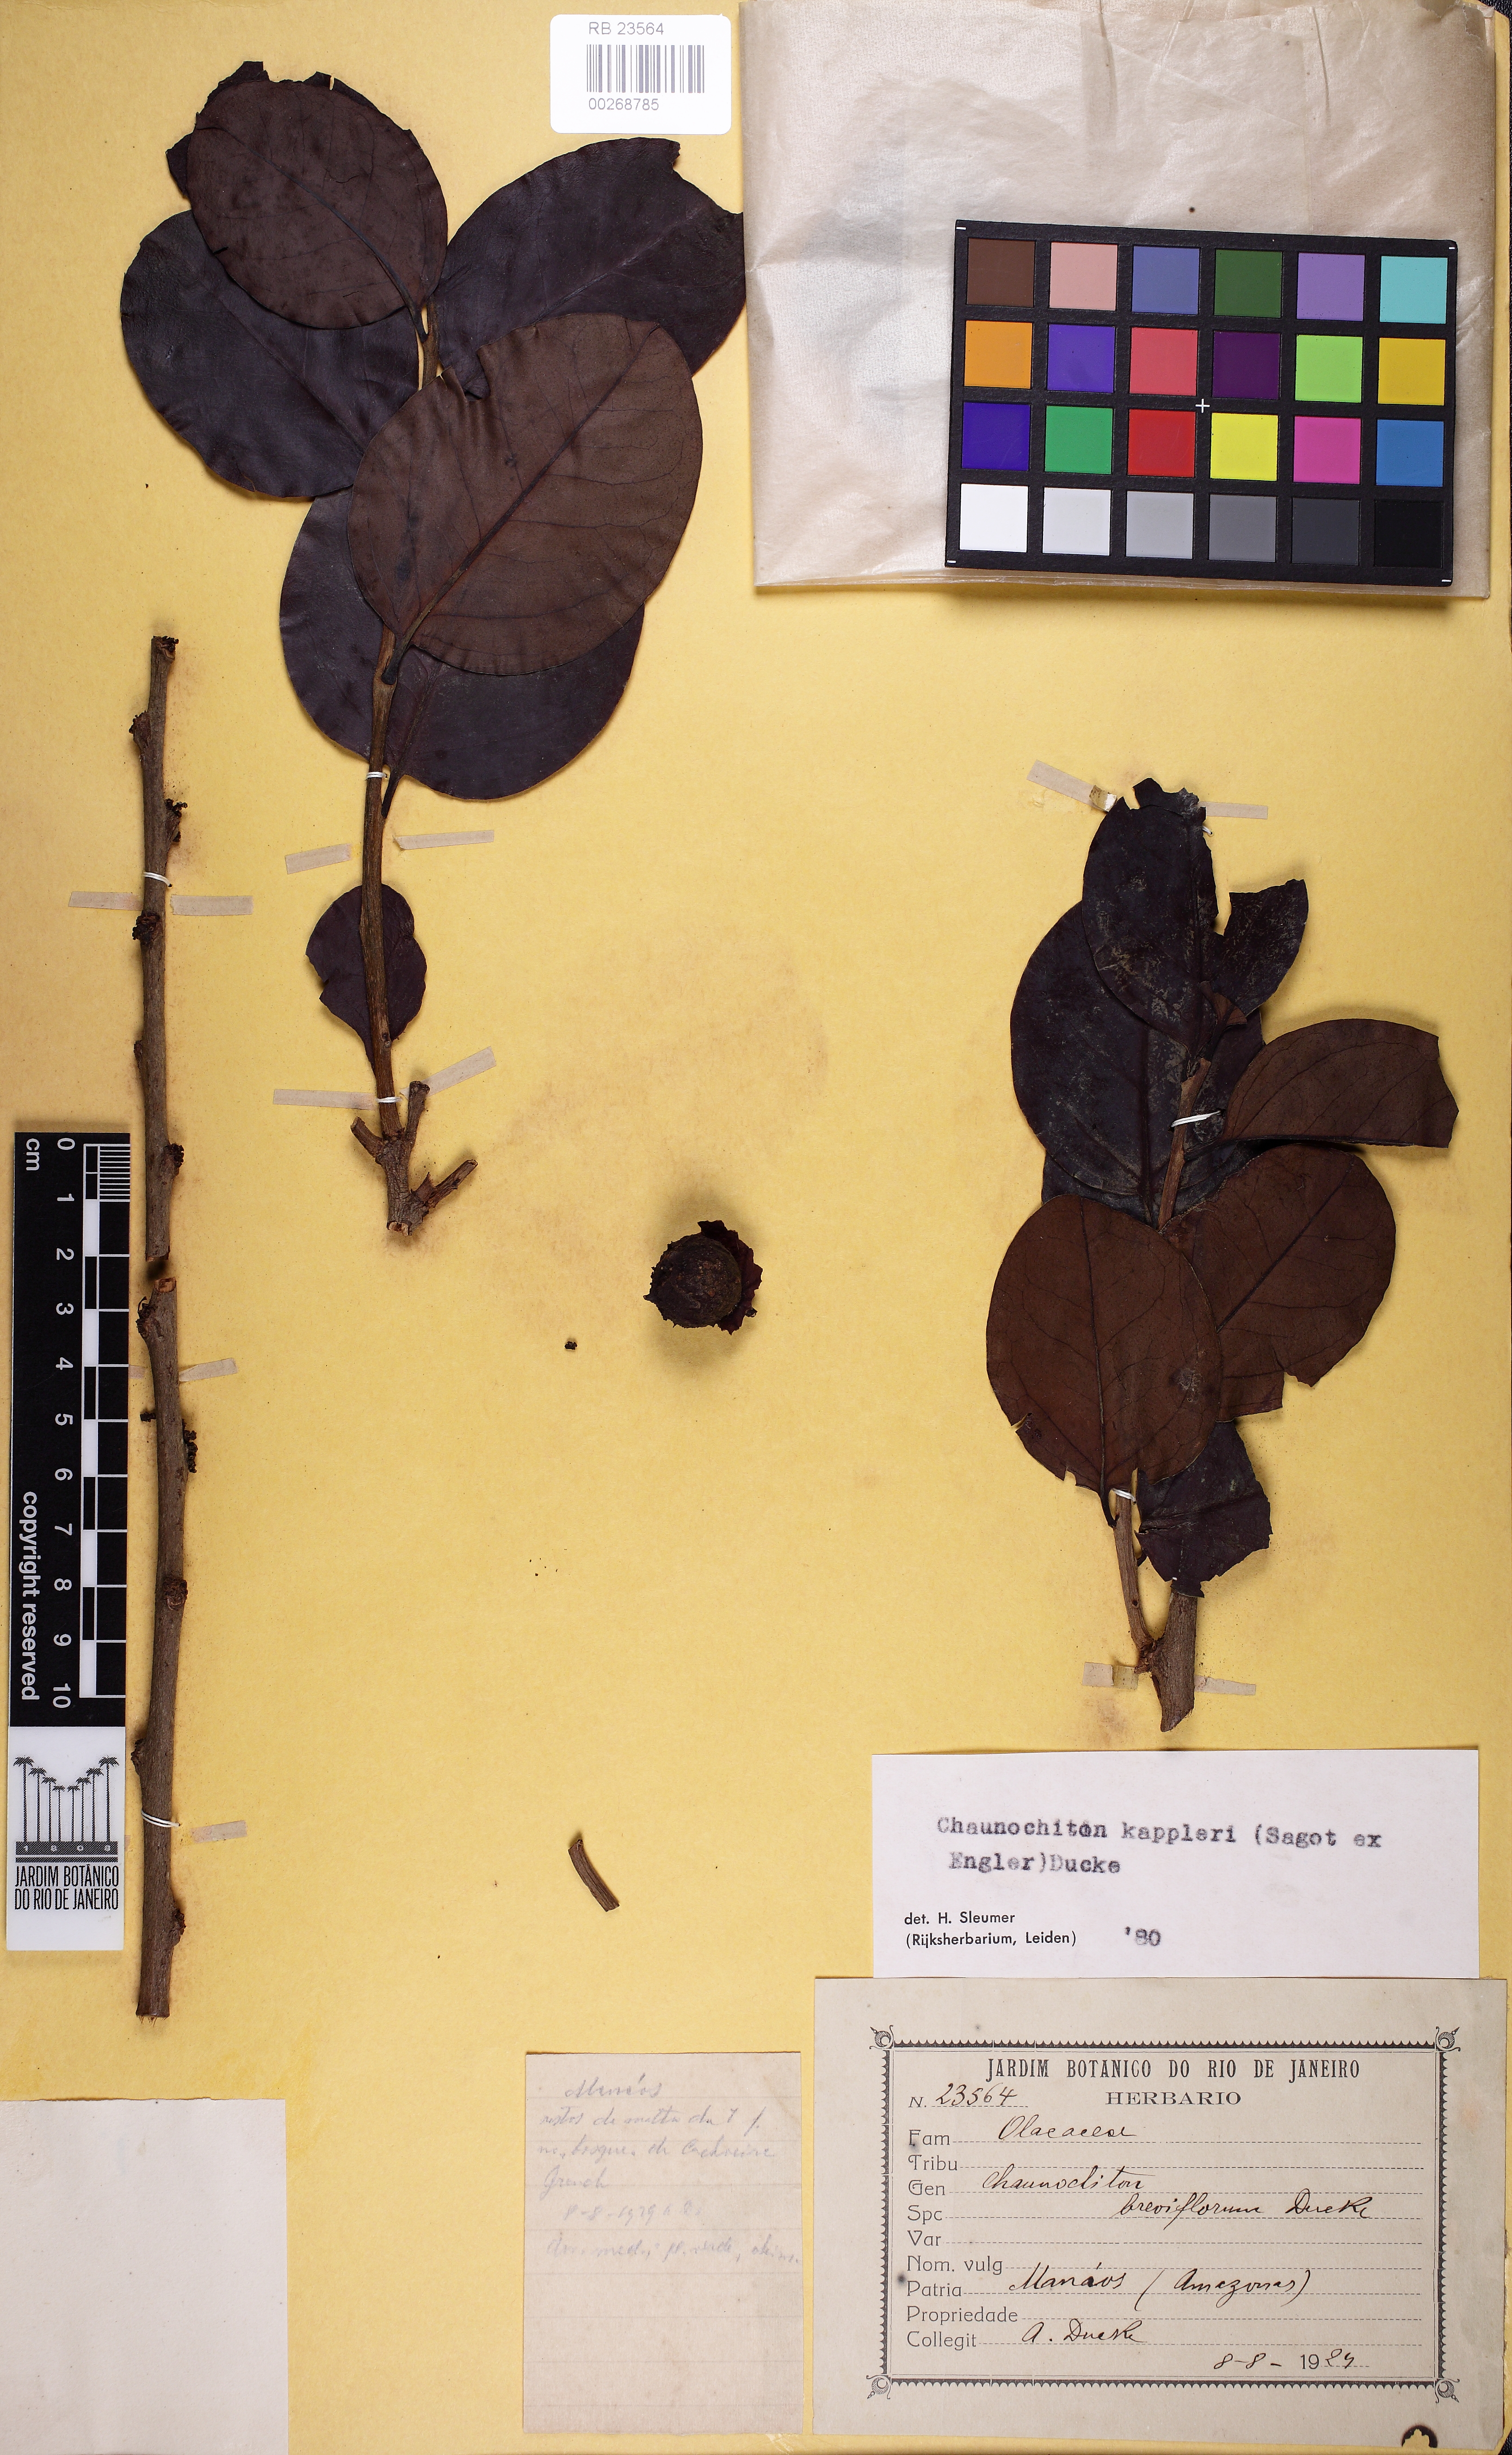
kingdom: Plantae
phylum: Tracheophyta
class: Magnoliopsida
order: Santalales
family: Aptandraceae
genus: Chaunochiton
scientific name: Chaunochiton kappleri
